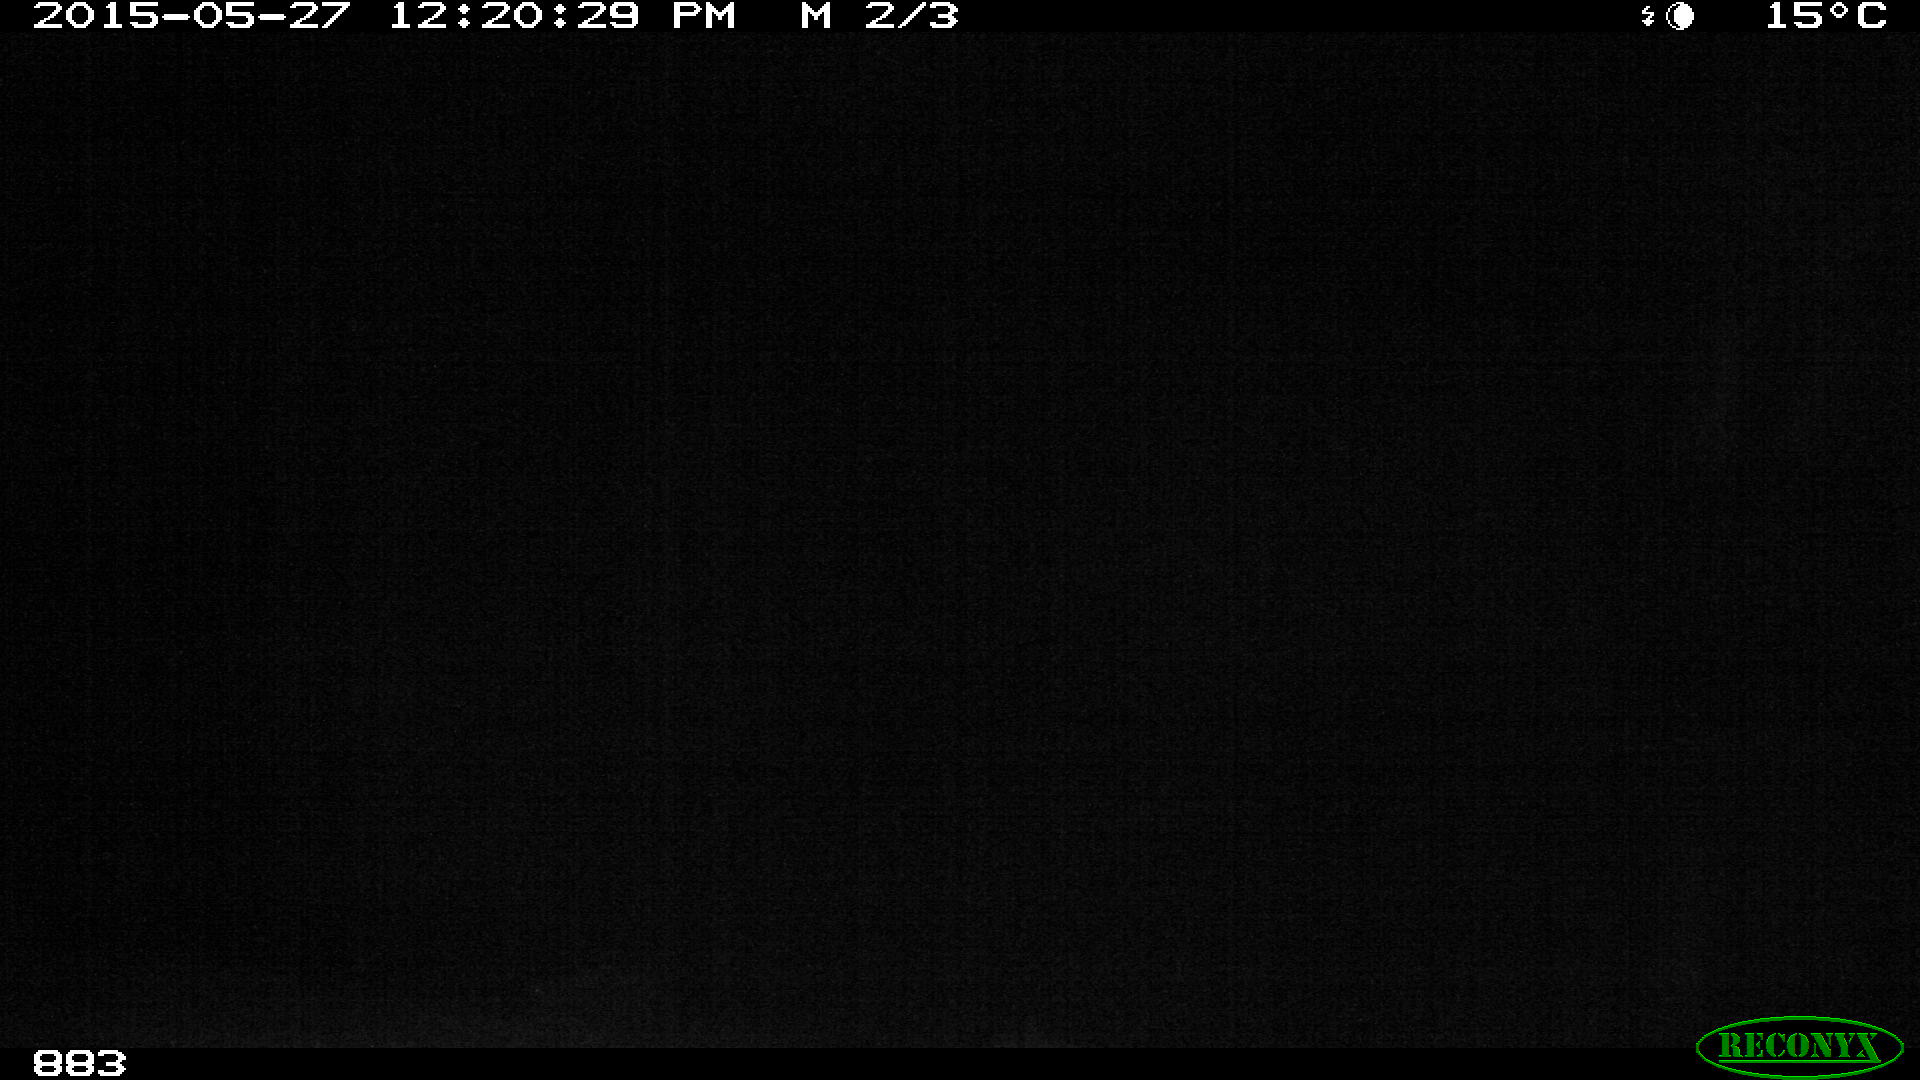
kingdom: Animalia
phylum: Chordata
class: Mammalia
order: Perissodactyla
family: Equidae
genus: Equus
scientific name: Equus caballus
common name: Horse
